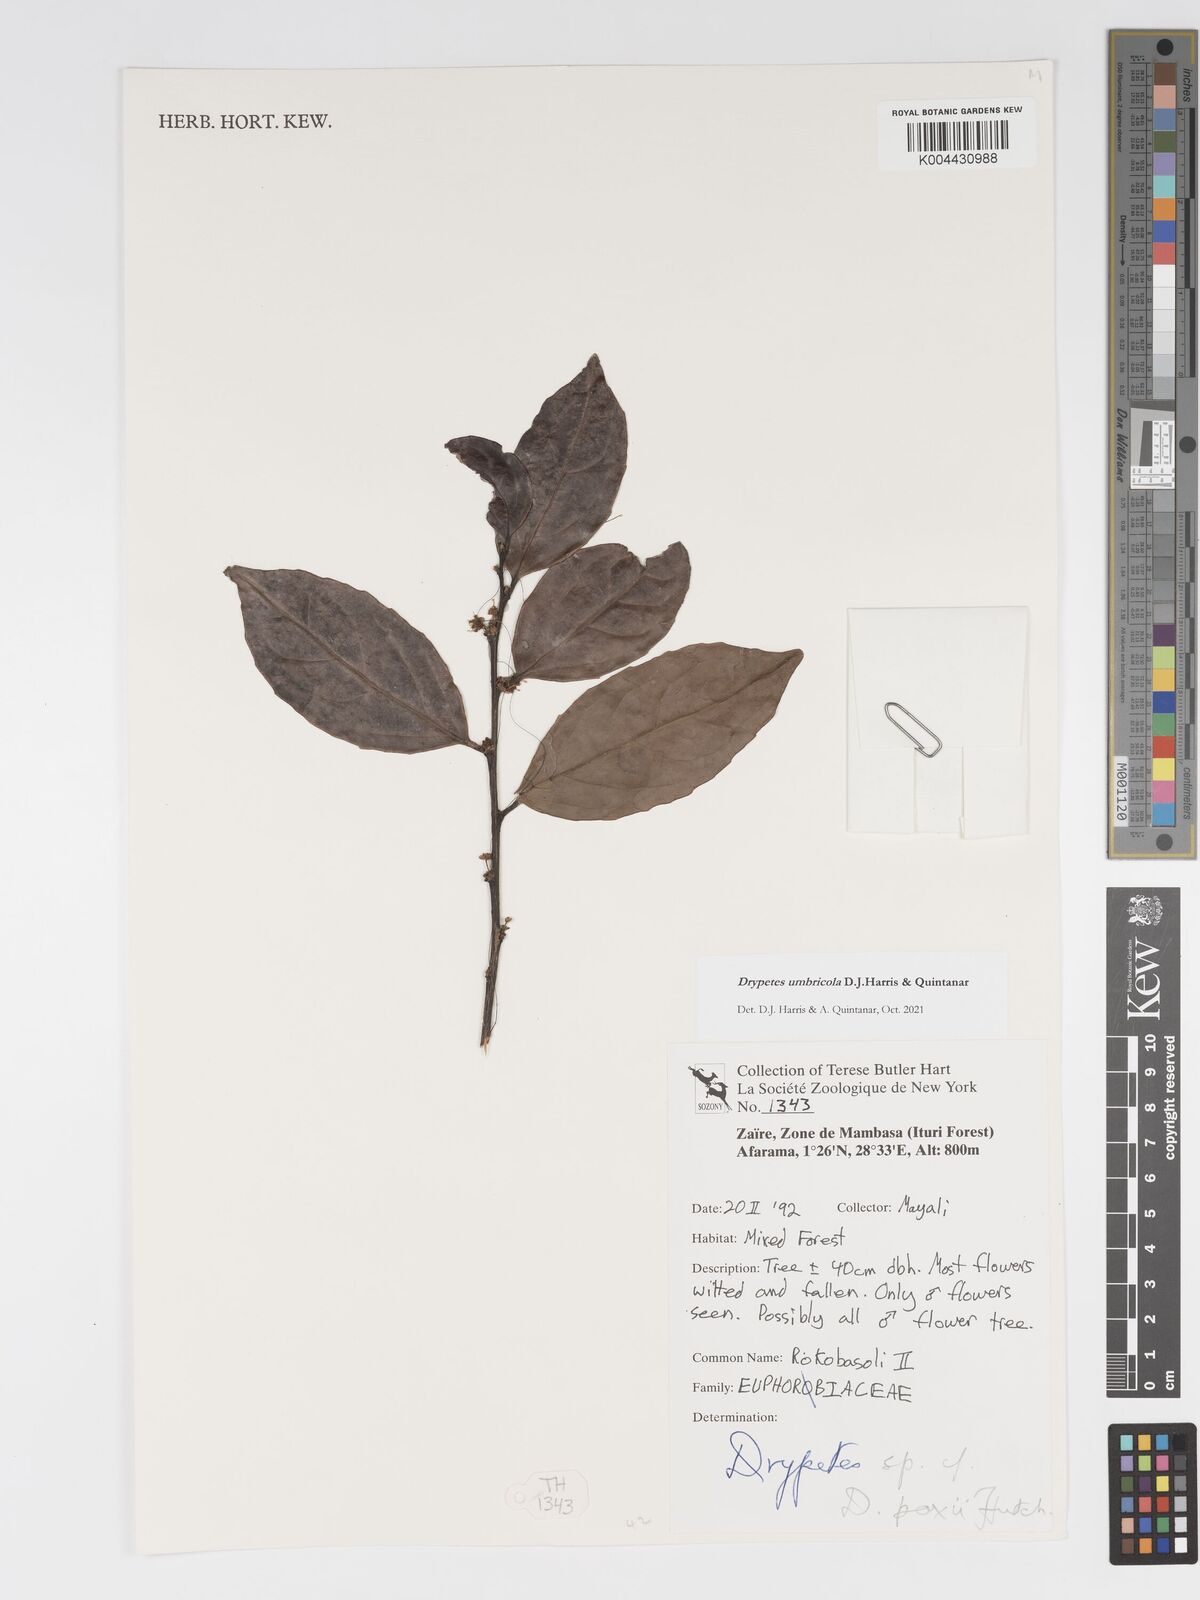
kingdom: Plantae
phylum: Tracheophyta
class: Magnoliopsida
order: Malpighiales
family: Putranjivaceae
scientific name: Putranjivaceae
